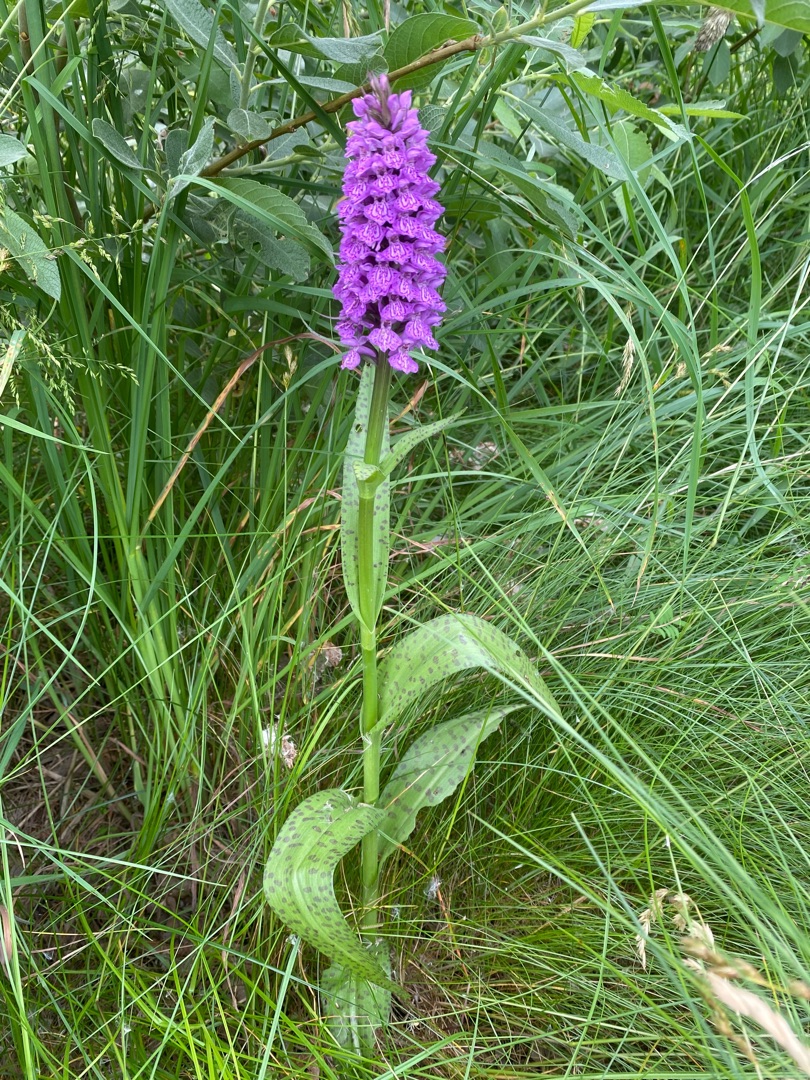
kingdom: Plantae
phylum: Tracheophyta
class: Liliopsida
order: Asparagales
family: Orchidaceae
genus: Dactylorhiza
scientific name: Dactylorhiza
